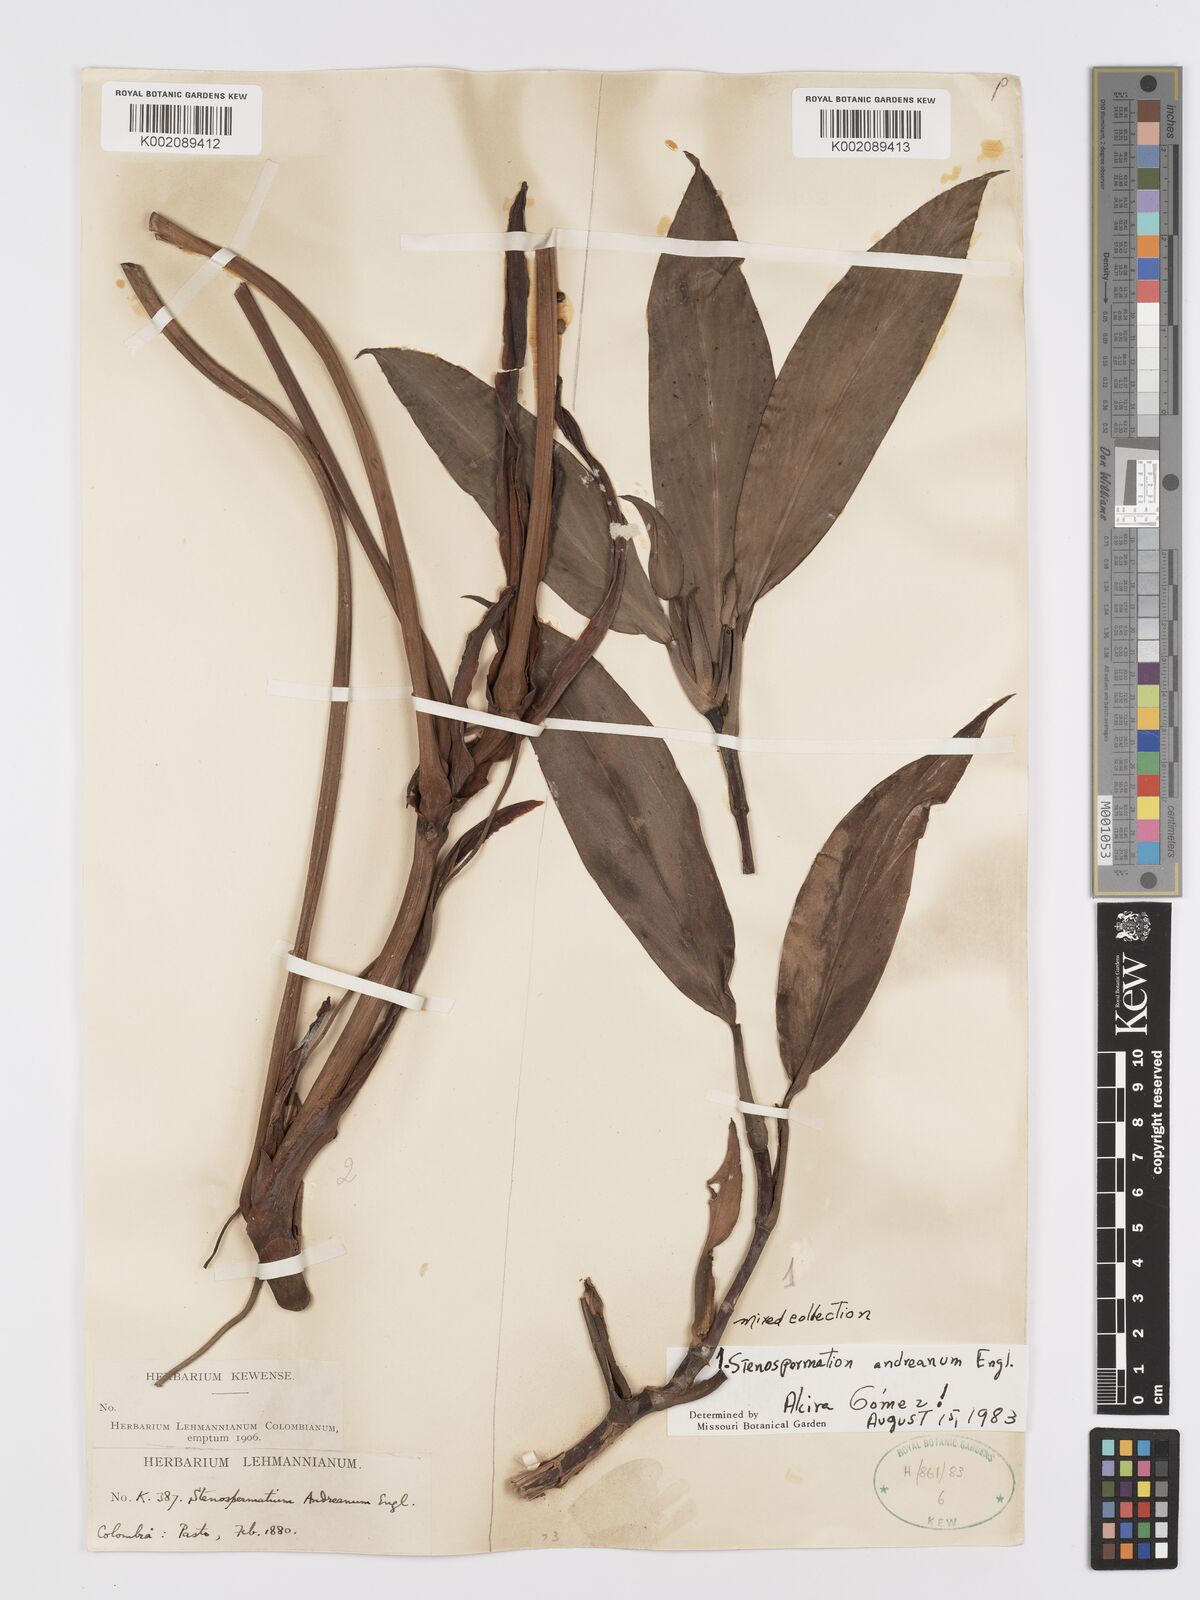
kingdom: Plantae
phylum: Tracheophyta
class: Liliopsida
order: Alismatales
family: Araceae
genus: Stenospermation
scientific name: Stenospermation andreanum
